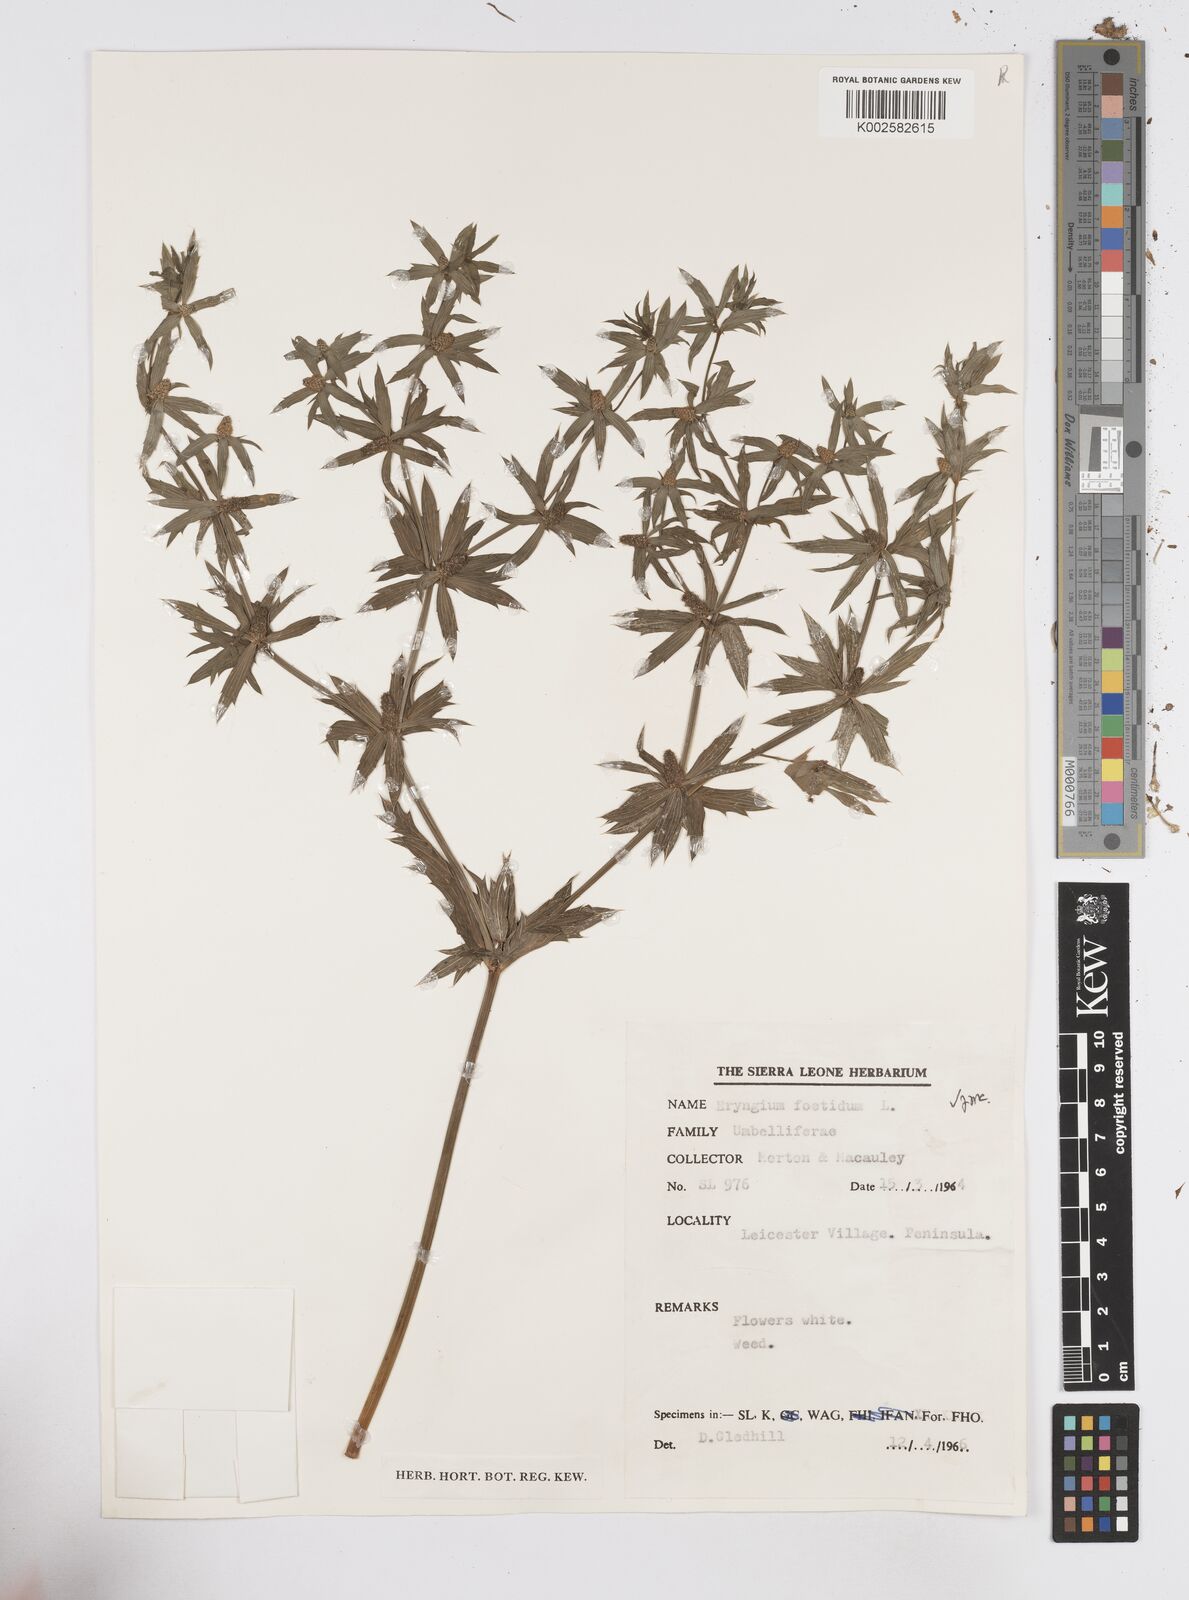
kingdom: Plantae
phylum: Tracheophyta
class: Magnoliopsida
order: Apiales
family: Apiaceae
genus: Eryngium
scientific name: Eryngium foetidum
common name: Fitweed
